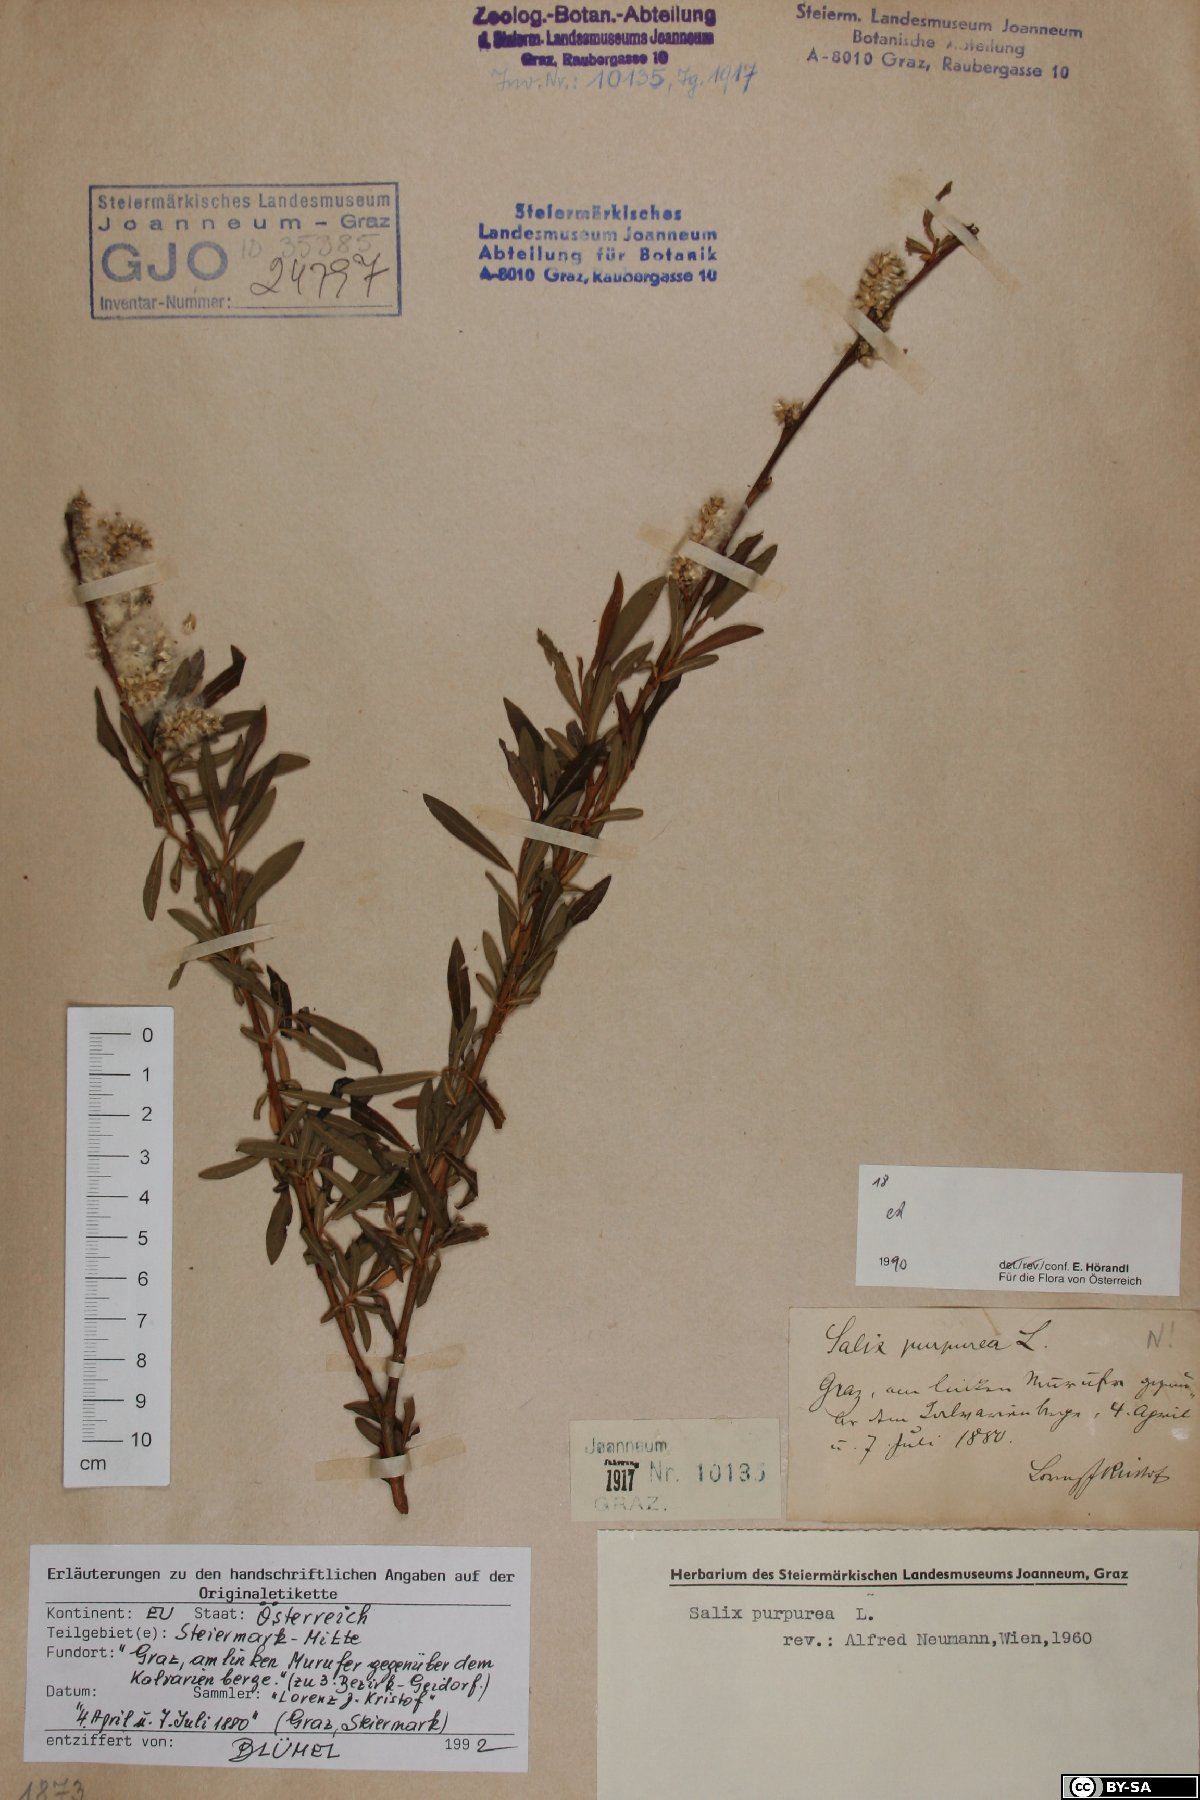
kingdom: Plantae
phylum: Tracheophyta
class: Magnoliopsida
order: Malpighiales
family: Salicaceae
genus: Salix
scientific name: Salix purpurea
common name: Purple willow
